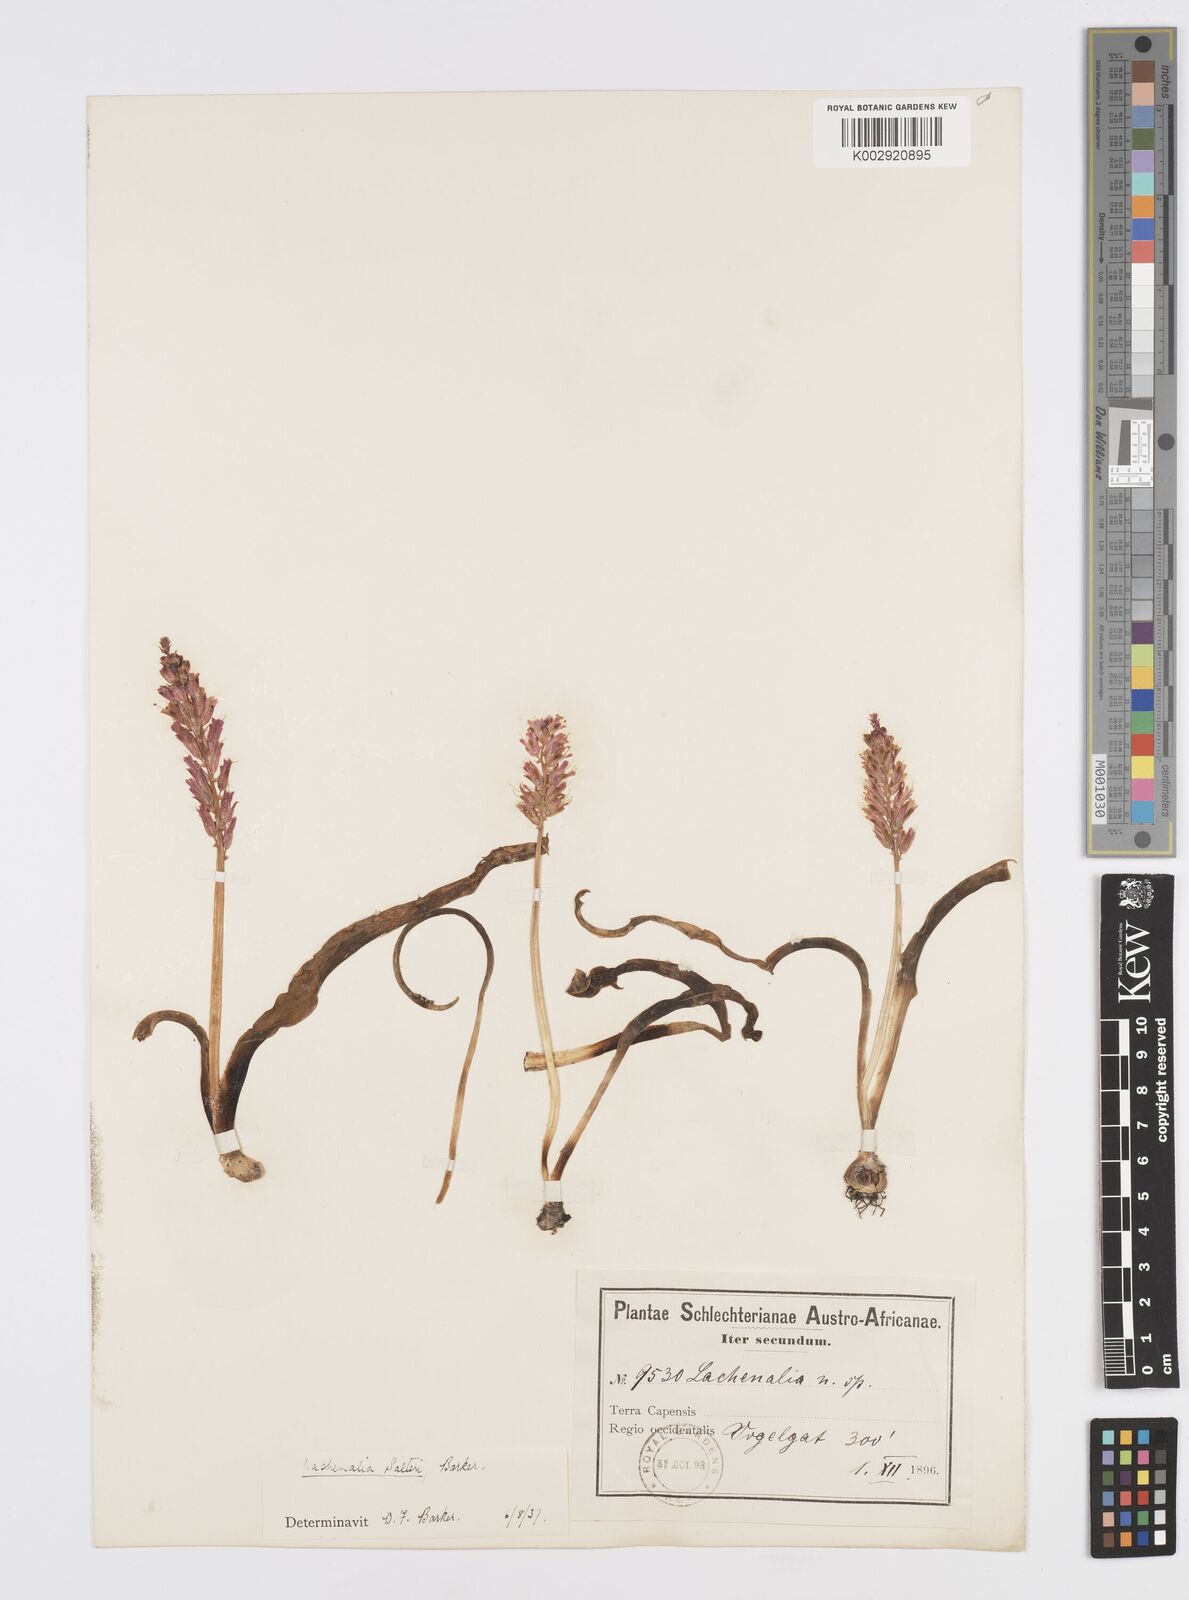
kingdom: Plantae
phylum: Tracheophyta
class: Liliopsida
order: Asparagales
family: Asparagaceae
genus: Lachenalia
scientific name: Lachenalia salteri
